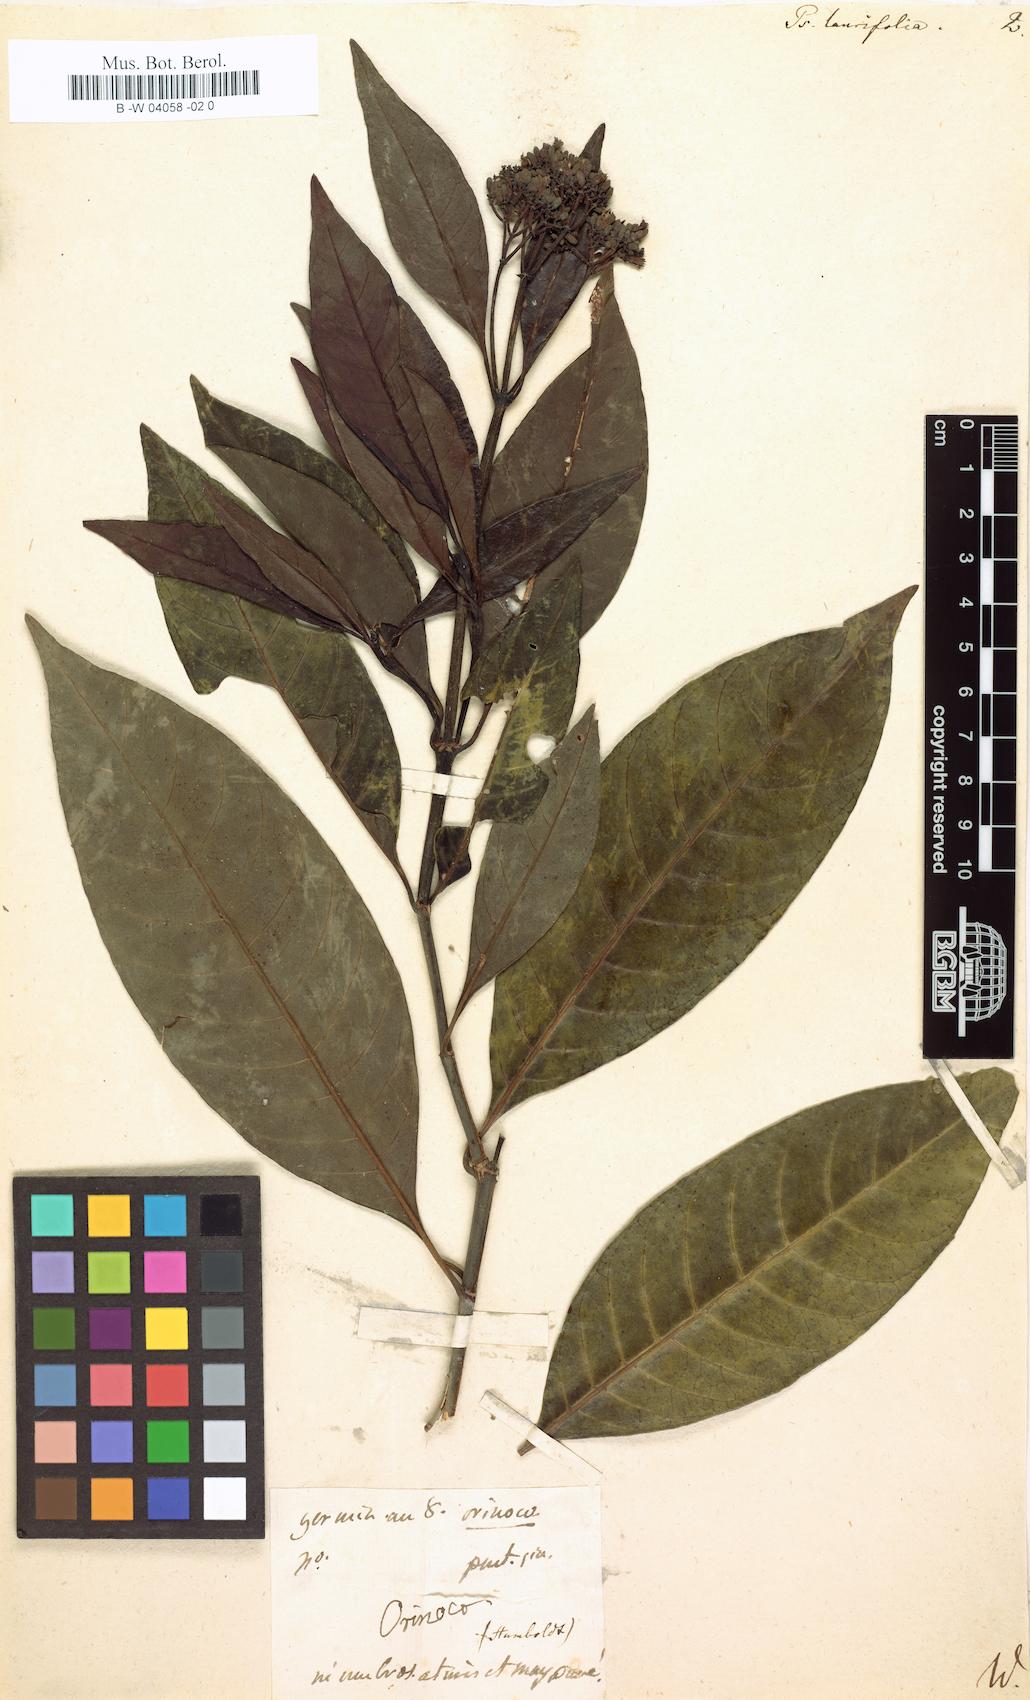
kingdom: Plantae
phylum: Tracheophyta
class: Magnoliopsida
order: Gentianales
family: Rubiaceae
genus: Psychotria
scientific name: Psychotria
